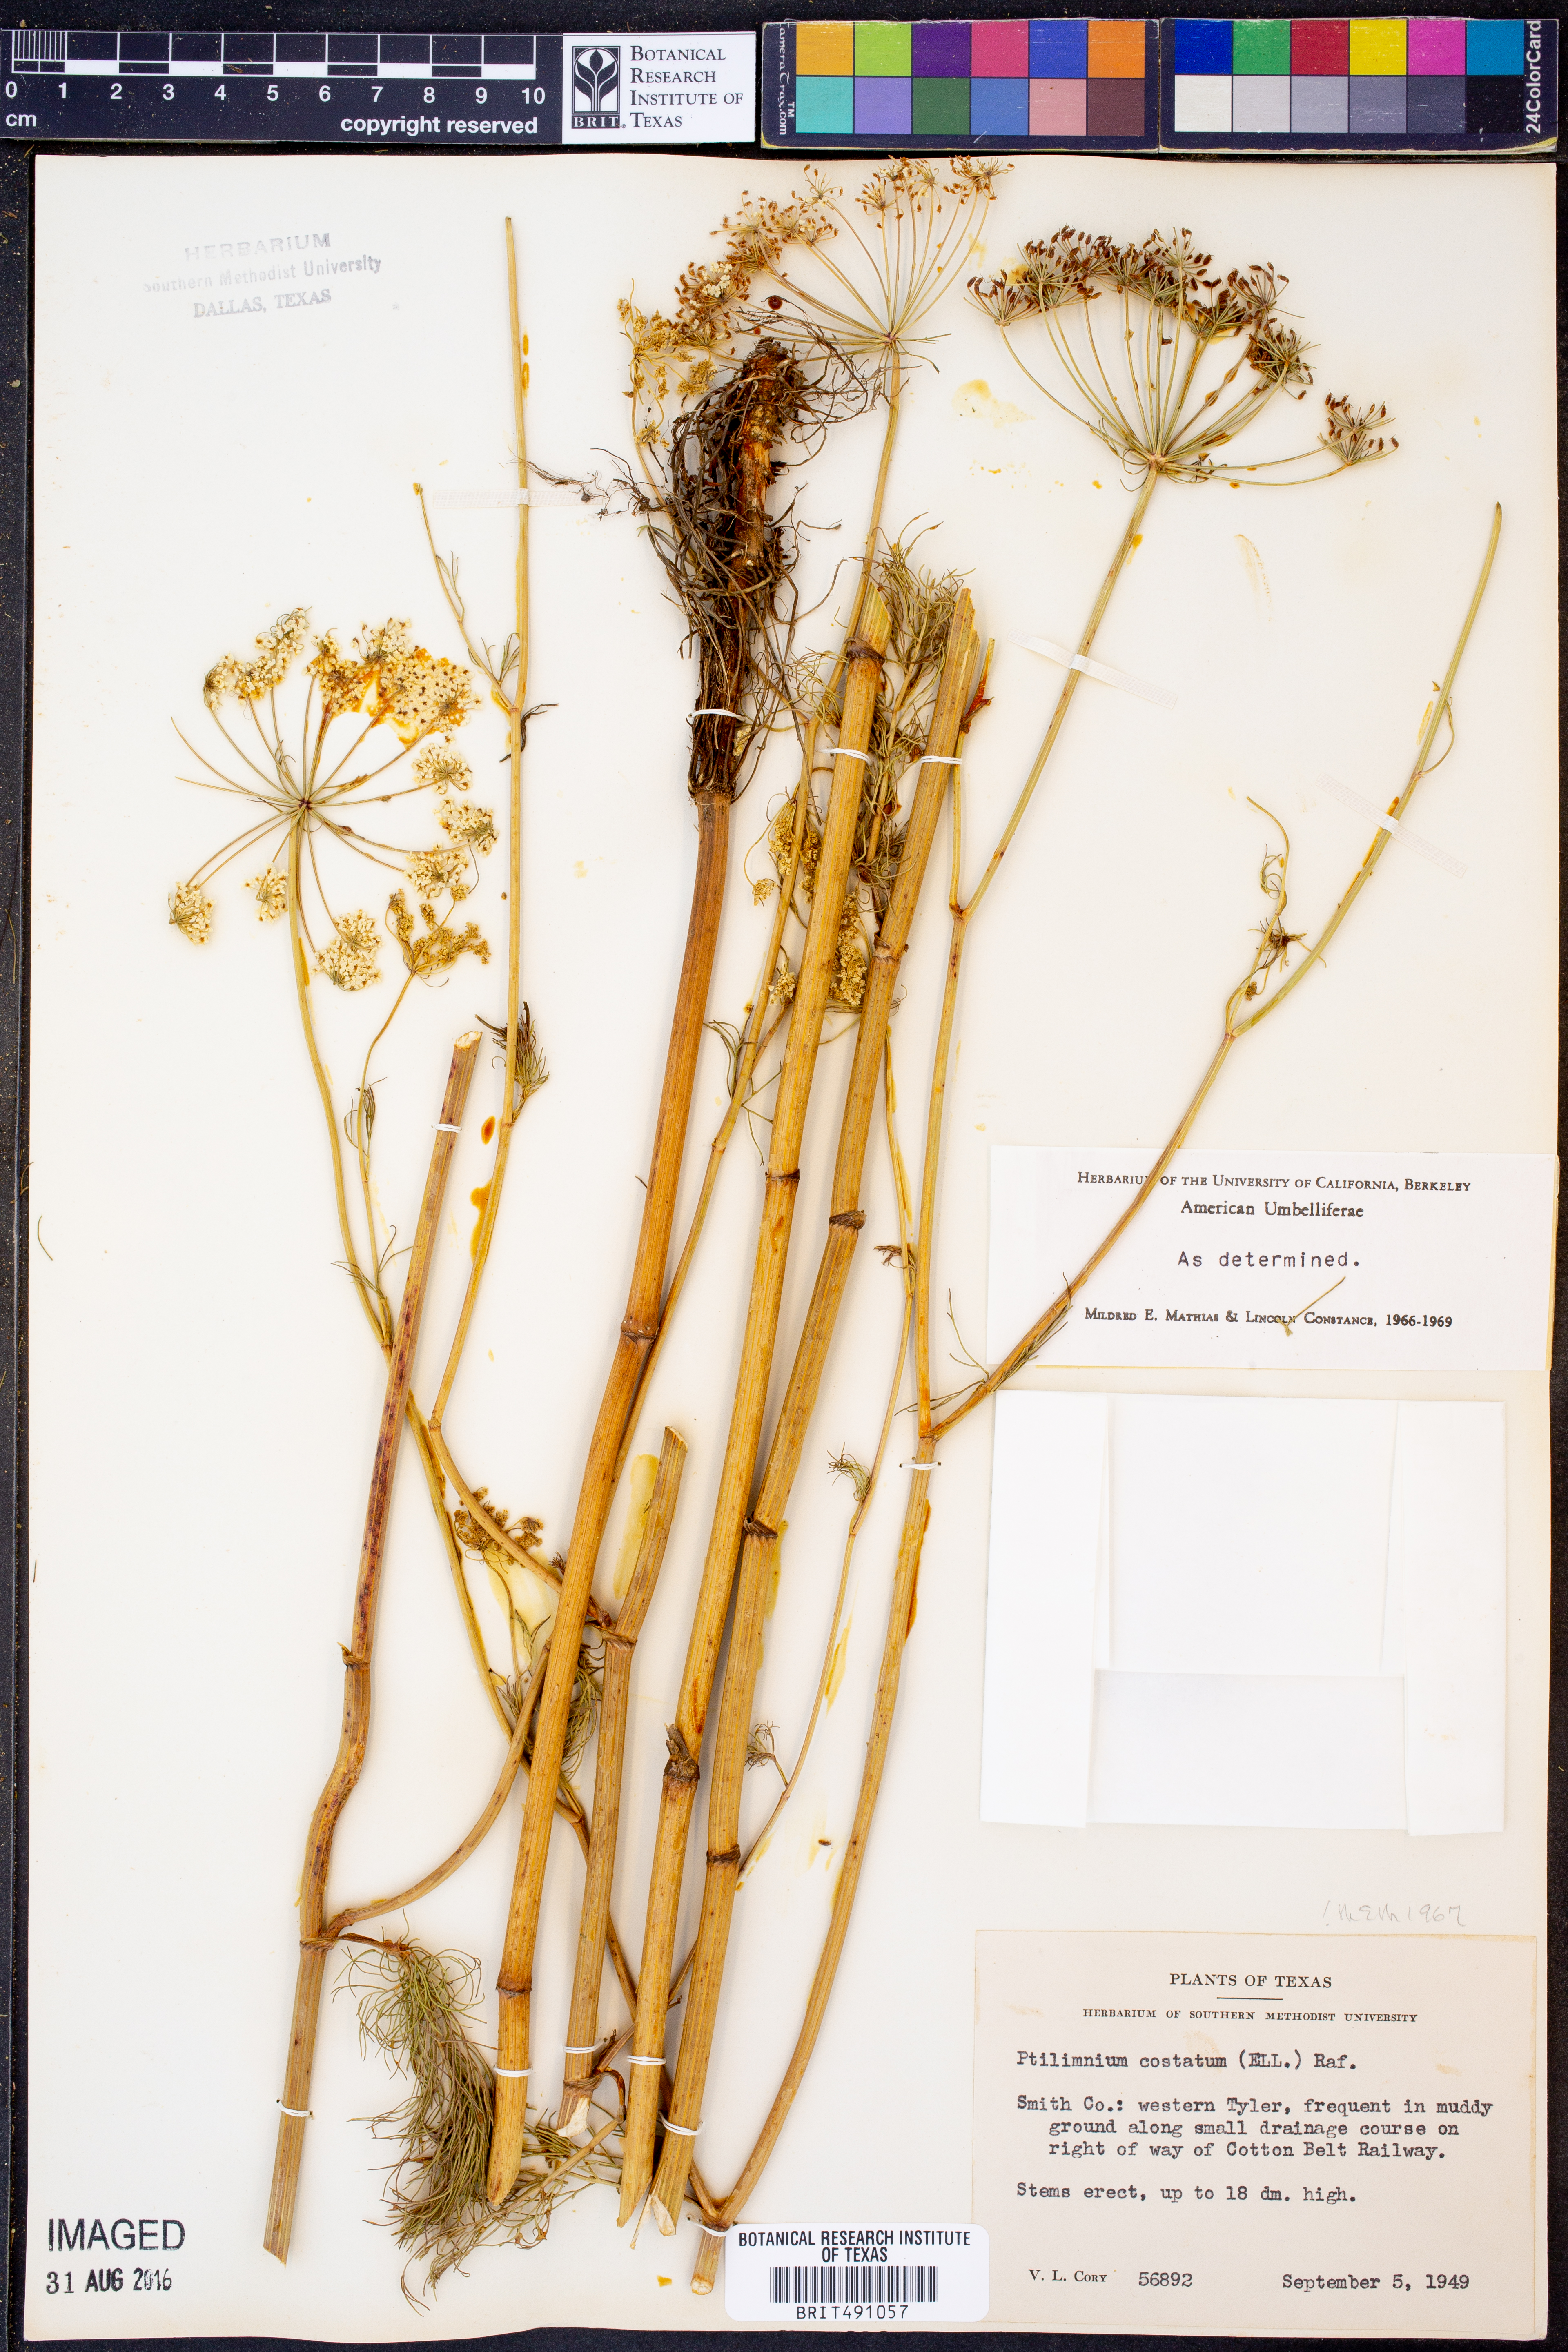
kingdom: Plantae
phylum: Tracheophyta
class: Magnoliopsida
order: Apiales
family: Apiaceae
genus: Ptilimnium
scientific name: Ptilimnium costatum
